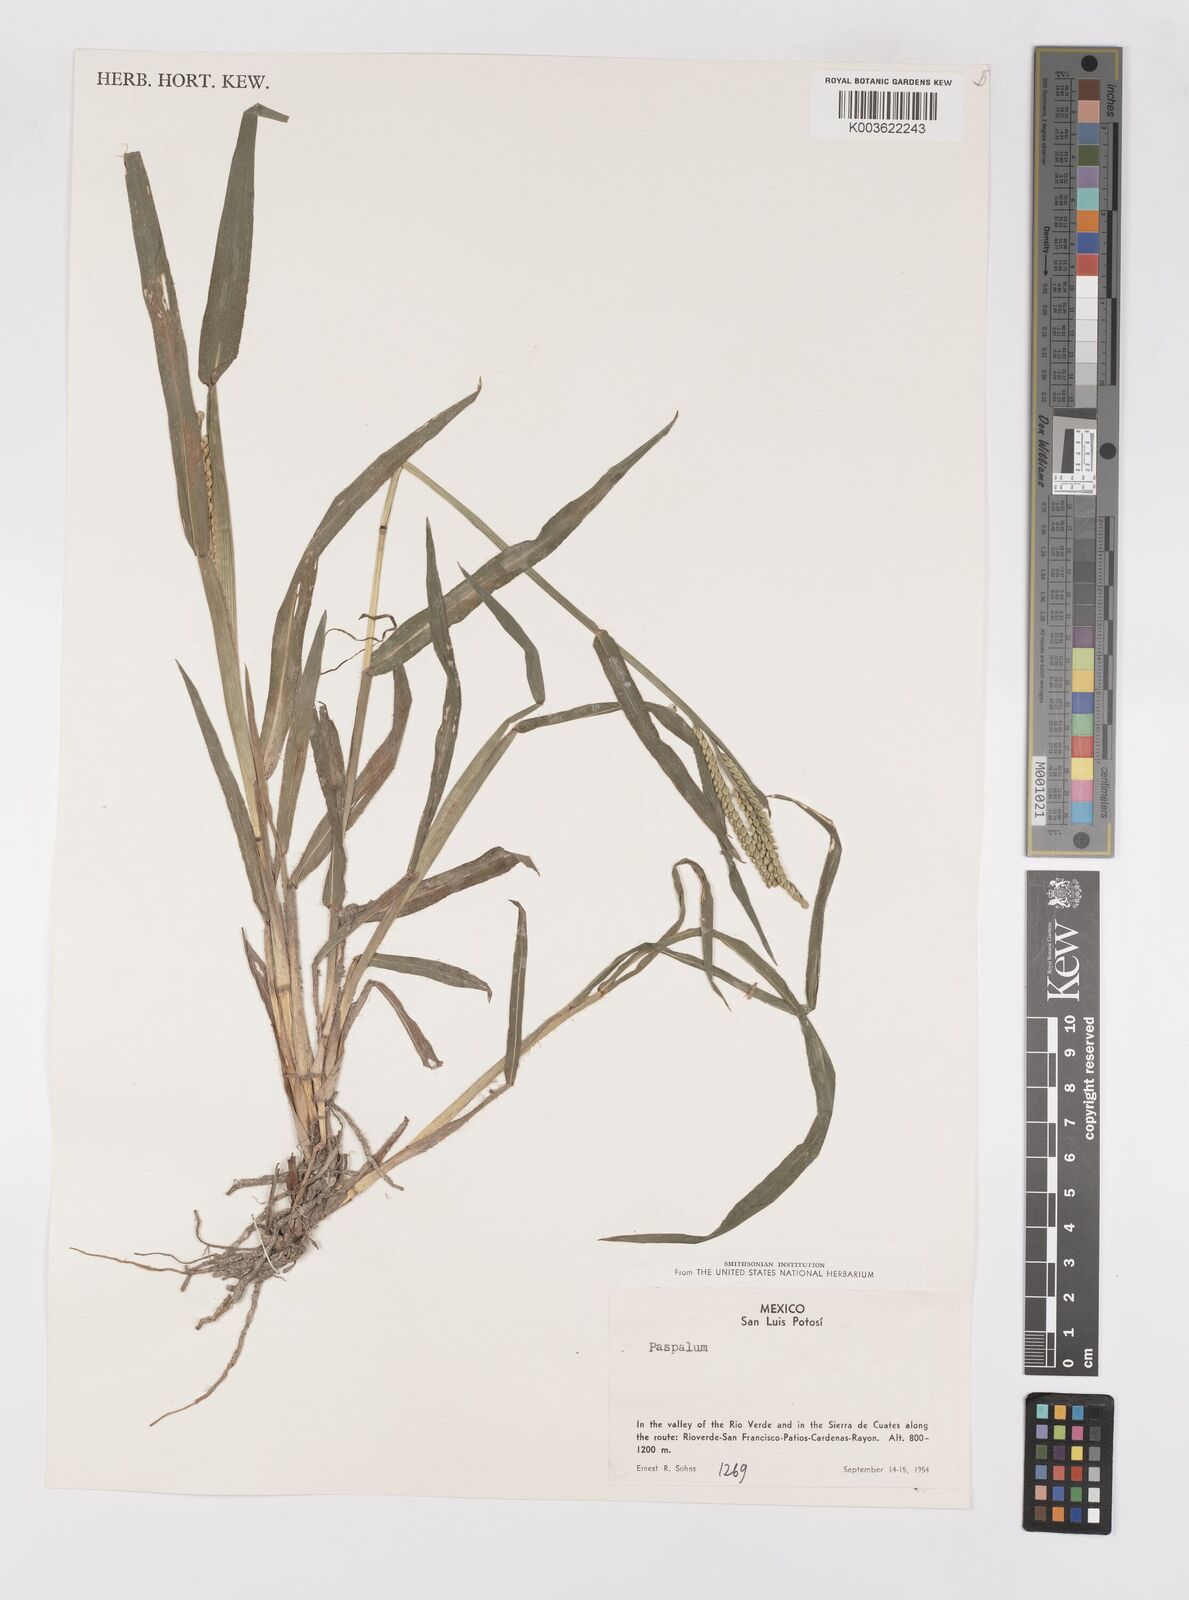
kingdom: Plantae
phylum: Tracheophyta
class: Liliopsida
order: Poales
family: Poaceae
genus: Paspalum
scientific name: Paspalum
